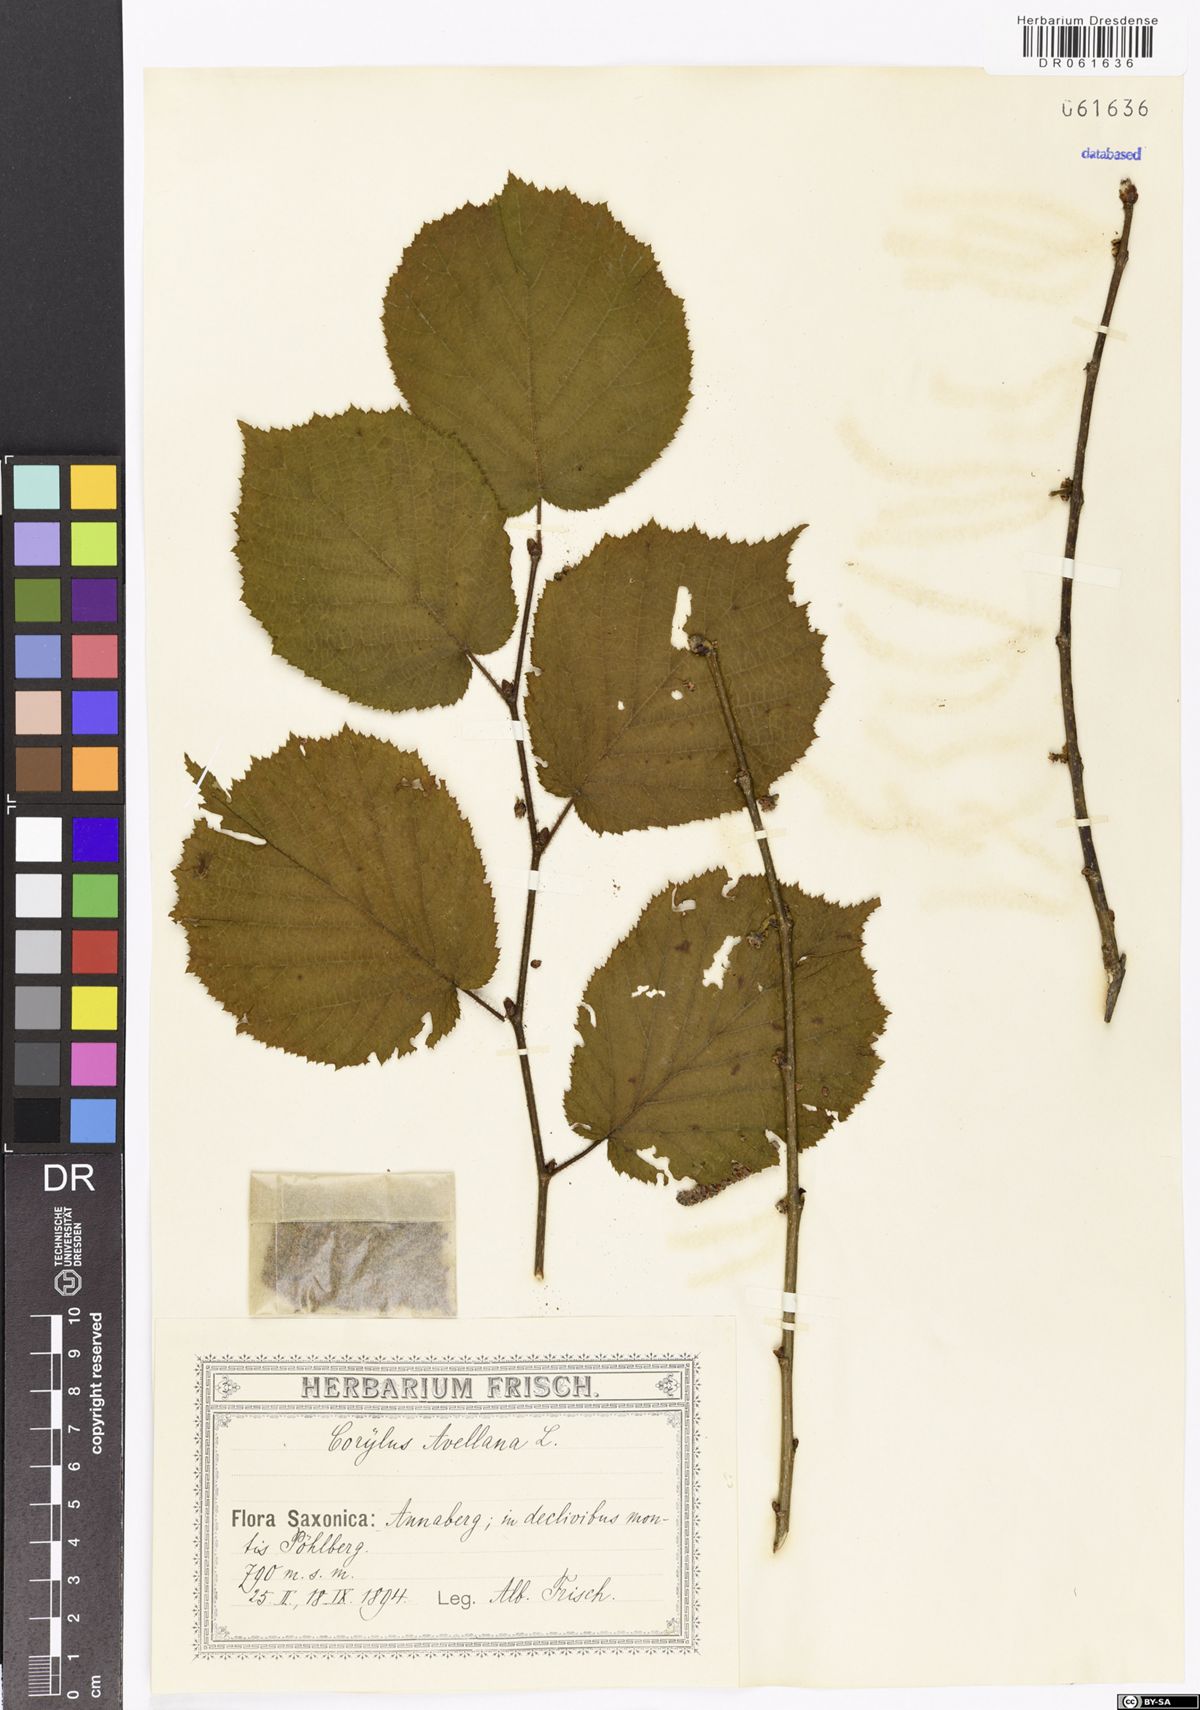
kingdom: Plantae
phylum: Tracheophyta
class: Magnoliopsida
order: Fagales
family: Betulaceae
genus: Corylus
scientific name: Corylus avellana
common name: European hazel
